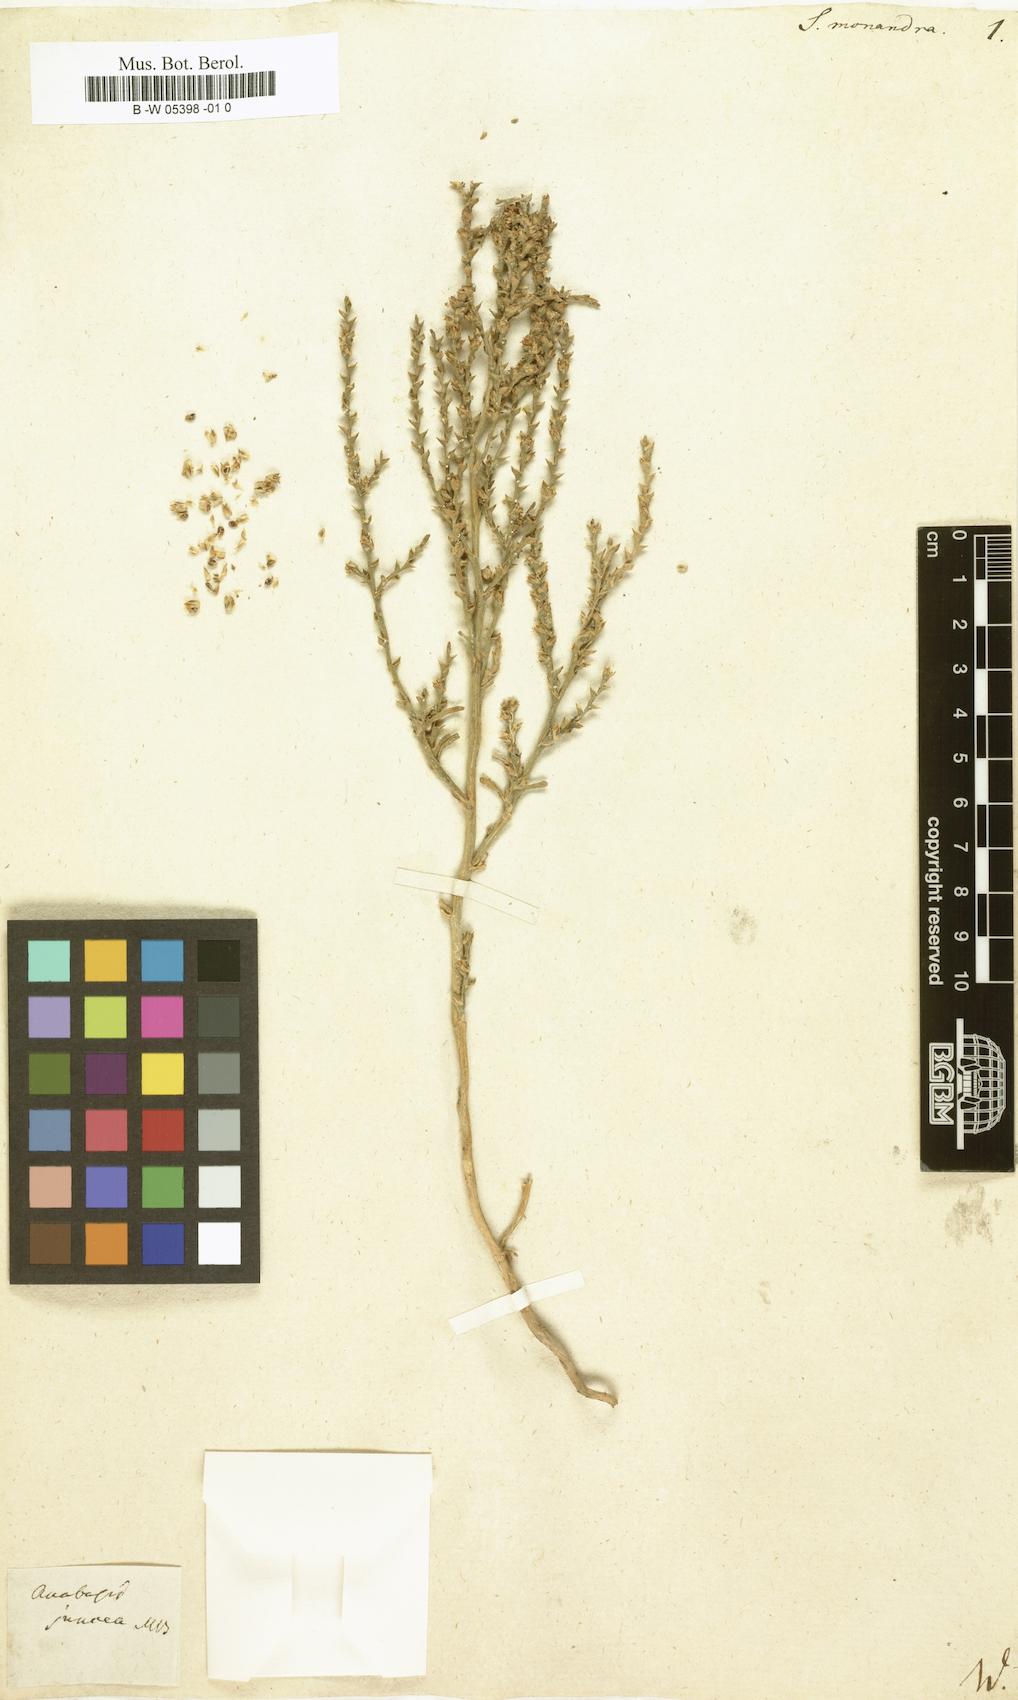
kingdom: Plantae
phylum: Tracheophyta
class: Magnoliopsida
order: Caryophyllales
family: Amaranthaceae
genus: Ofaiston
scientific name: Ofaiston monandrum
